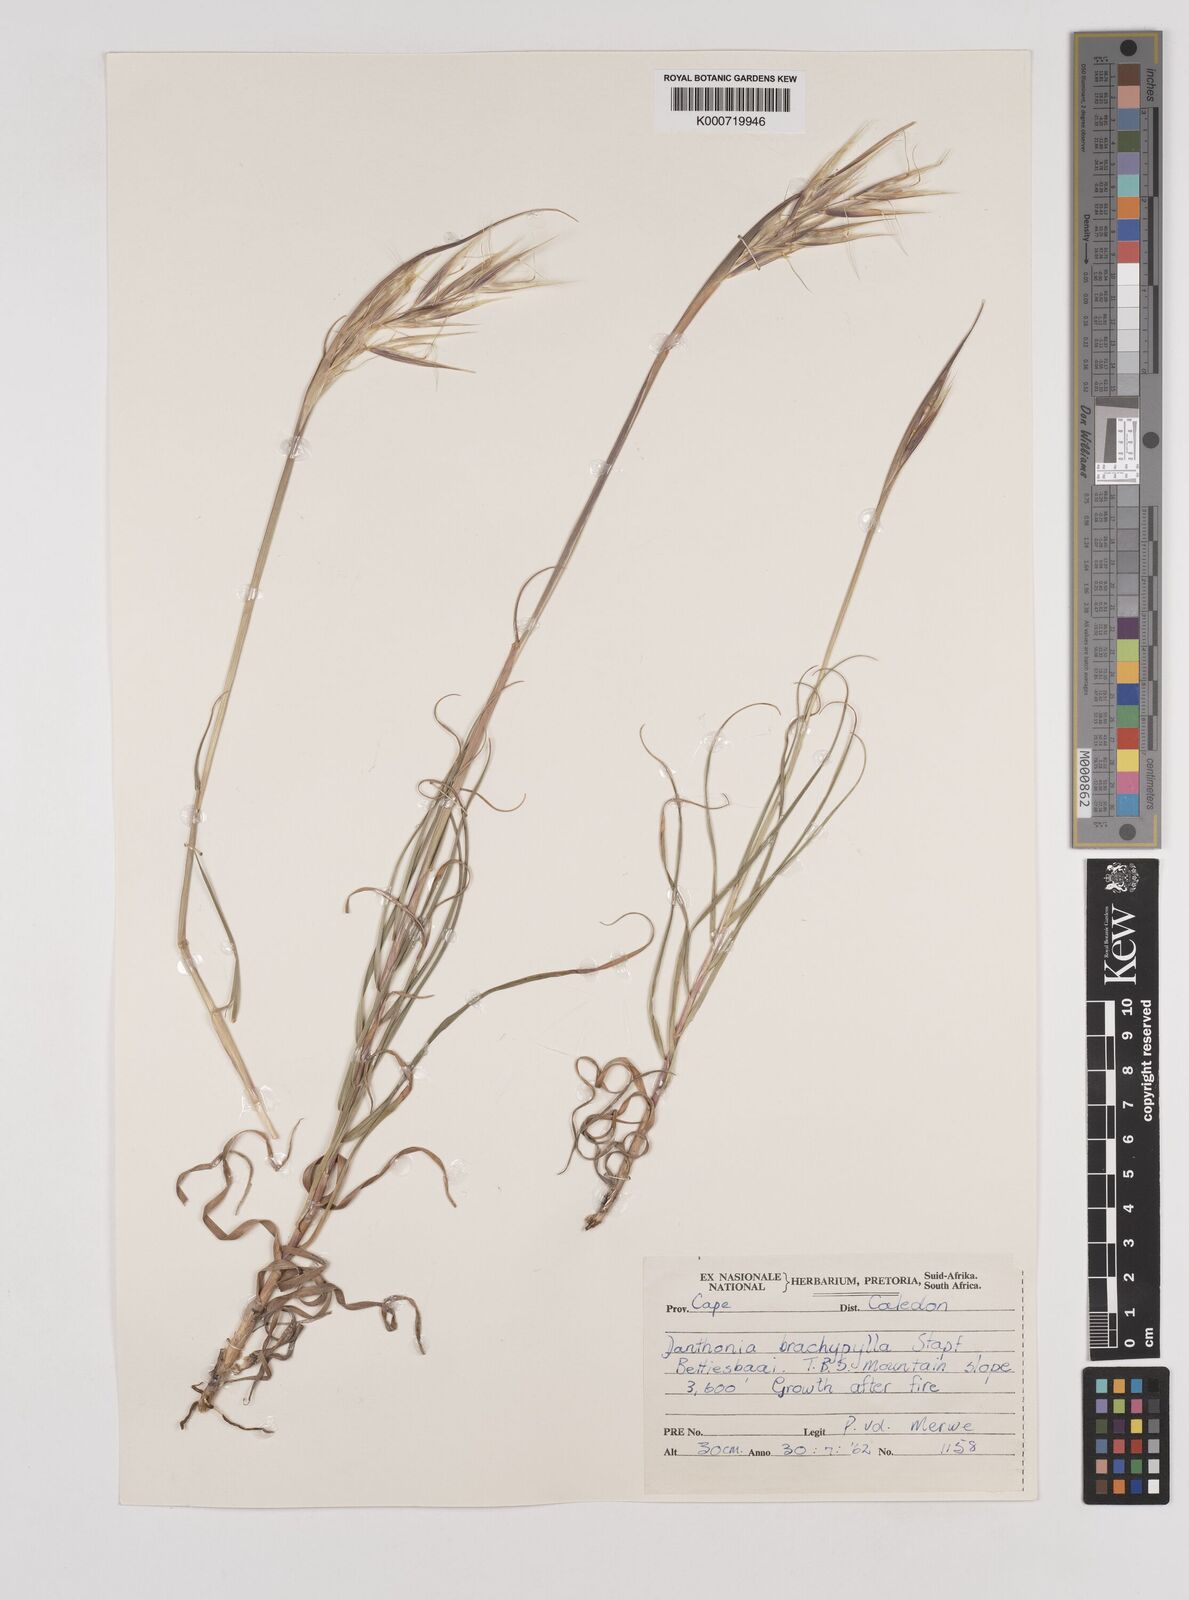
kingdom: Plantae
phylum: Tracheophyta
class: Liliopsida
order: Poales
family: Poaceae
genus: Pseudopentameris
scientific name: Pseudopentameris brachyphylla
